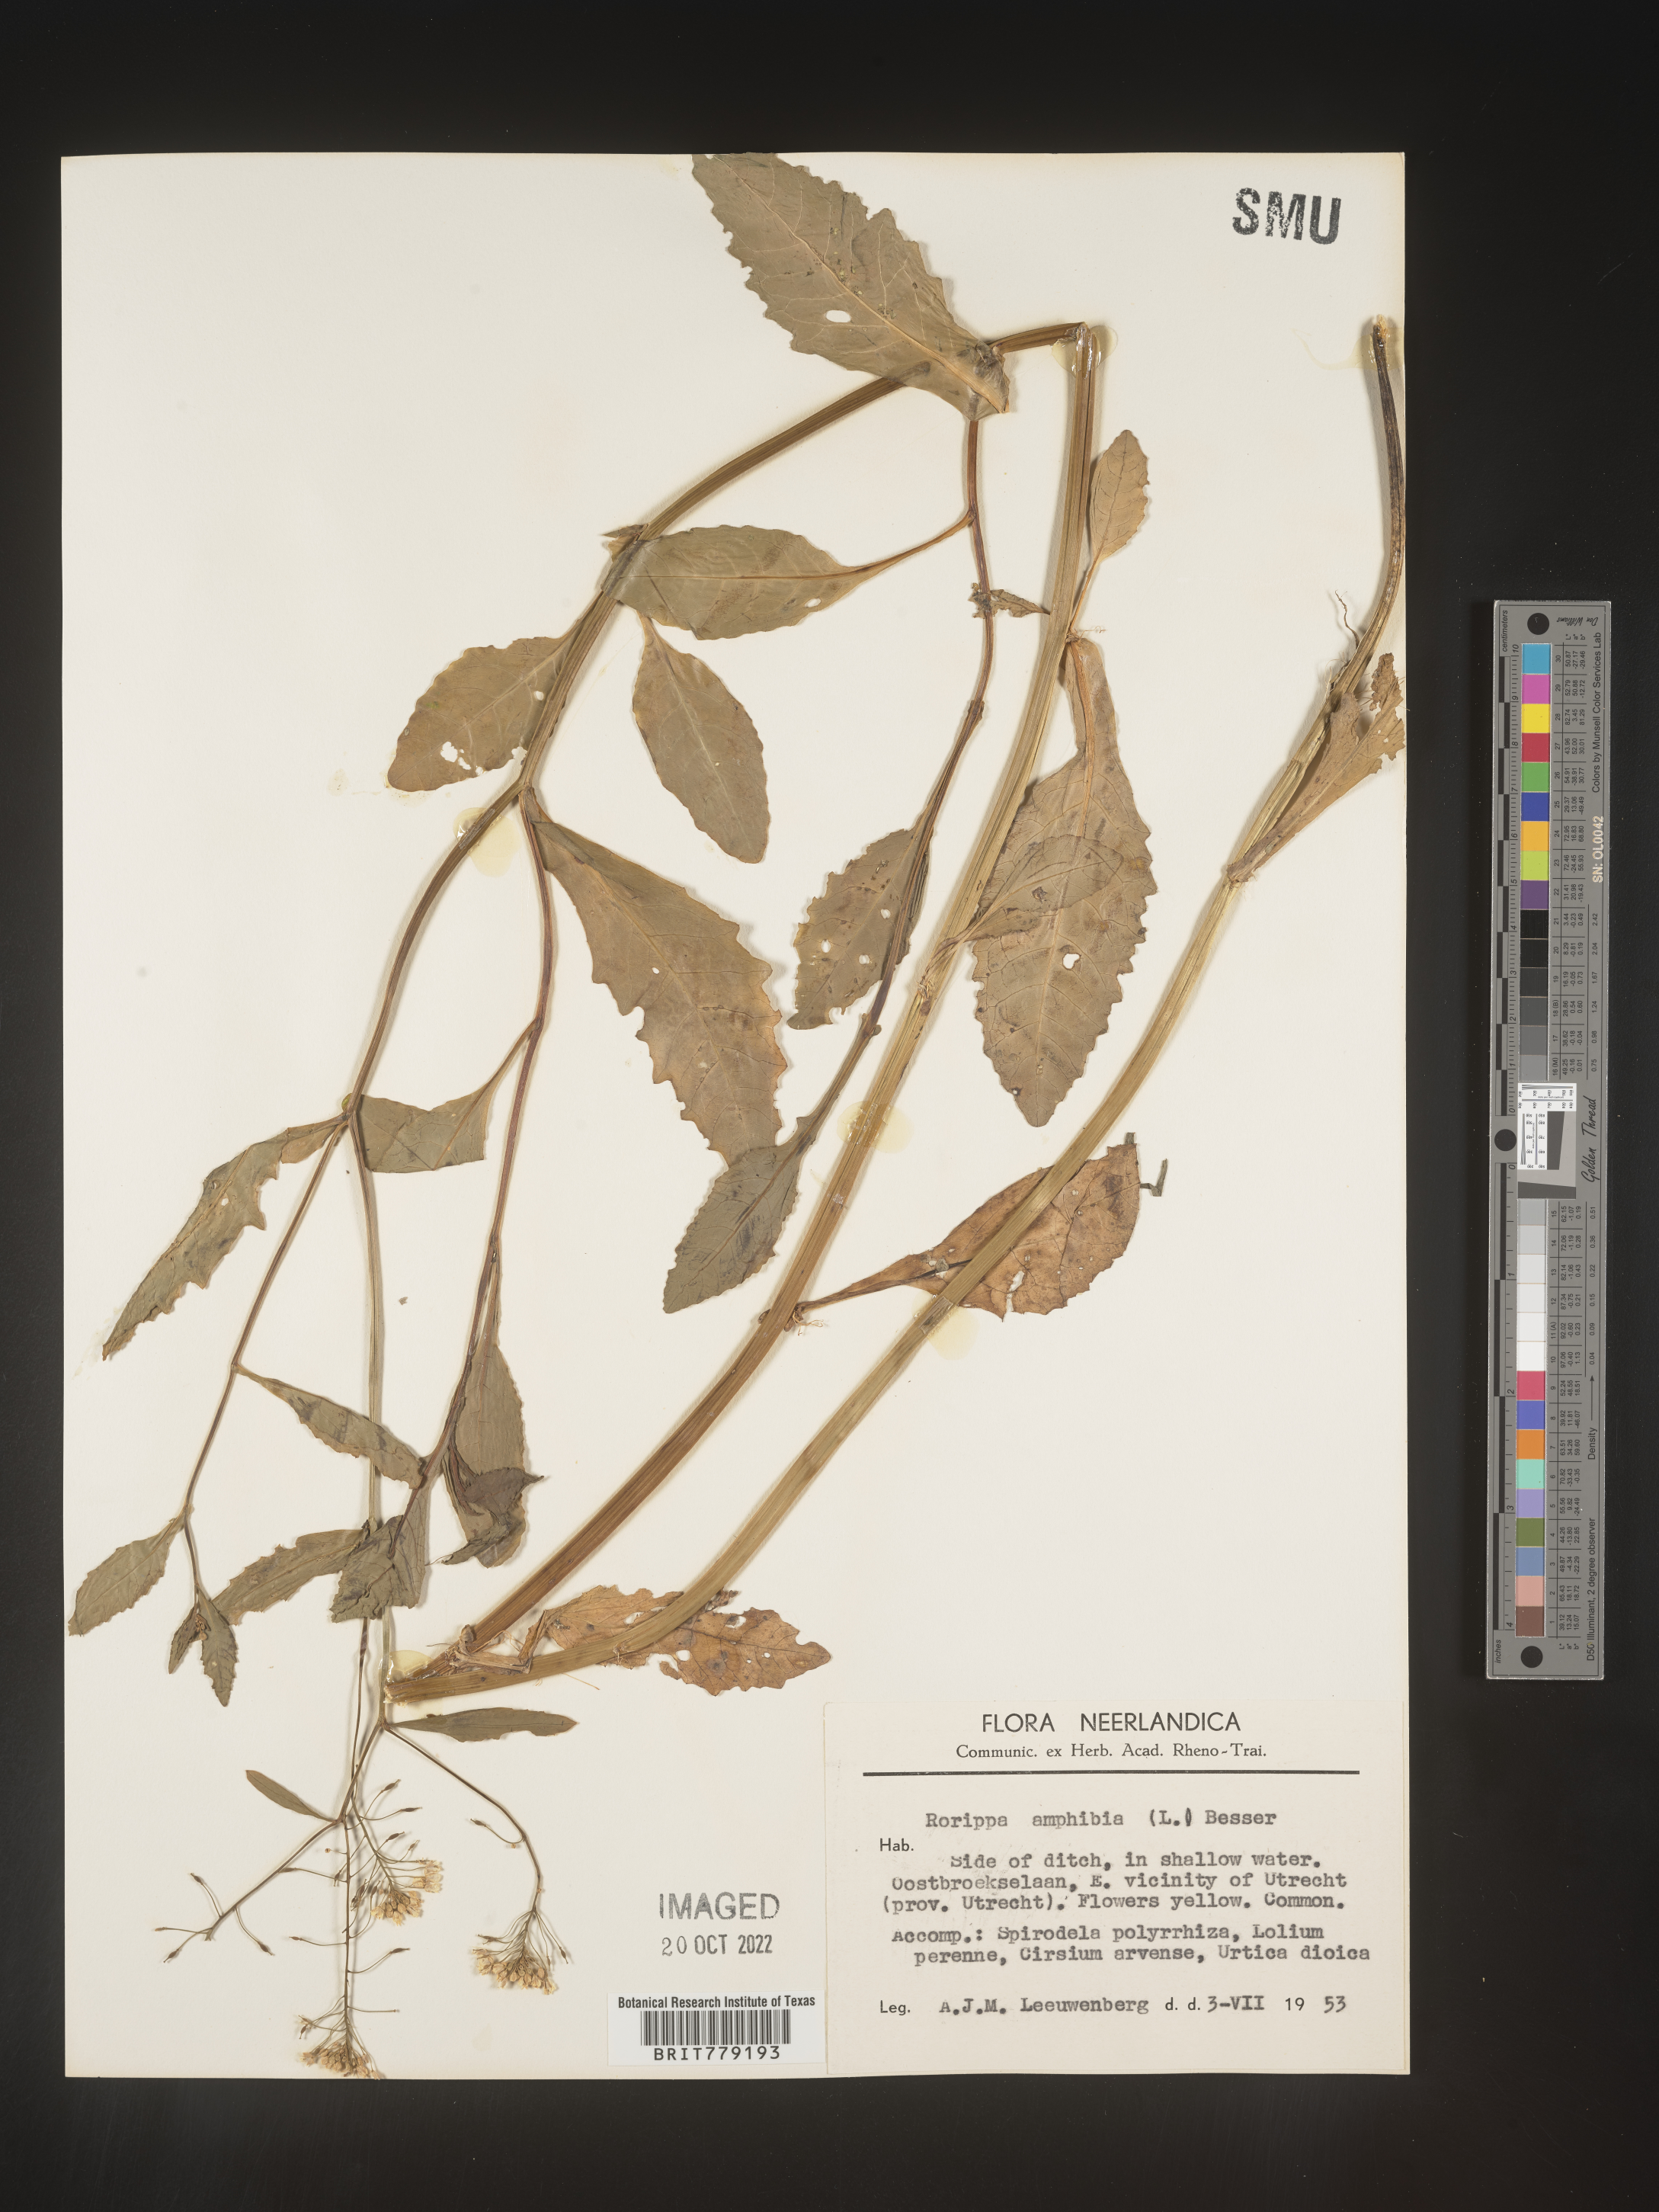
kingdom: Plantae
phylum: Tracheophyta
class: Magnoliopsida
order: Brassicales
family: Brassicaceae
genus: Rorippa
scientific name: Rorippa
